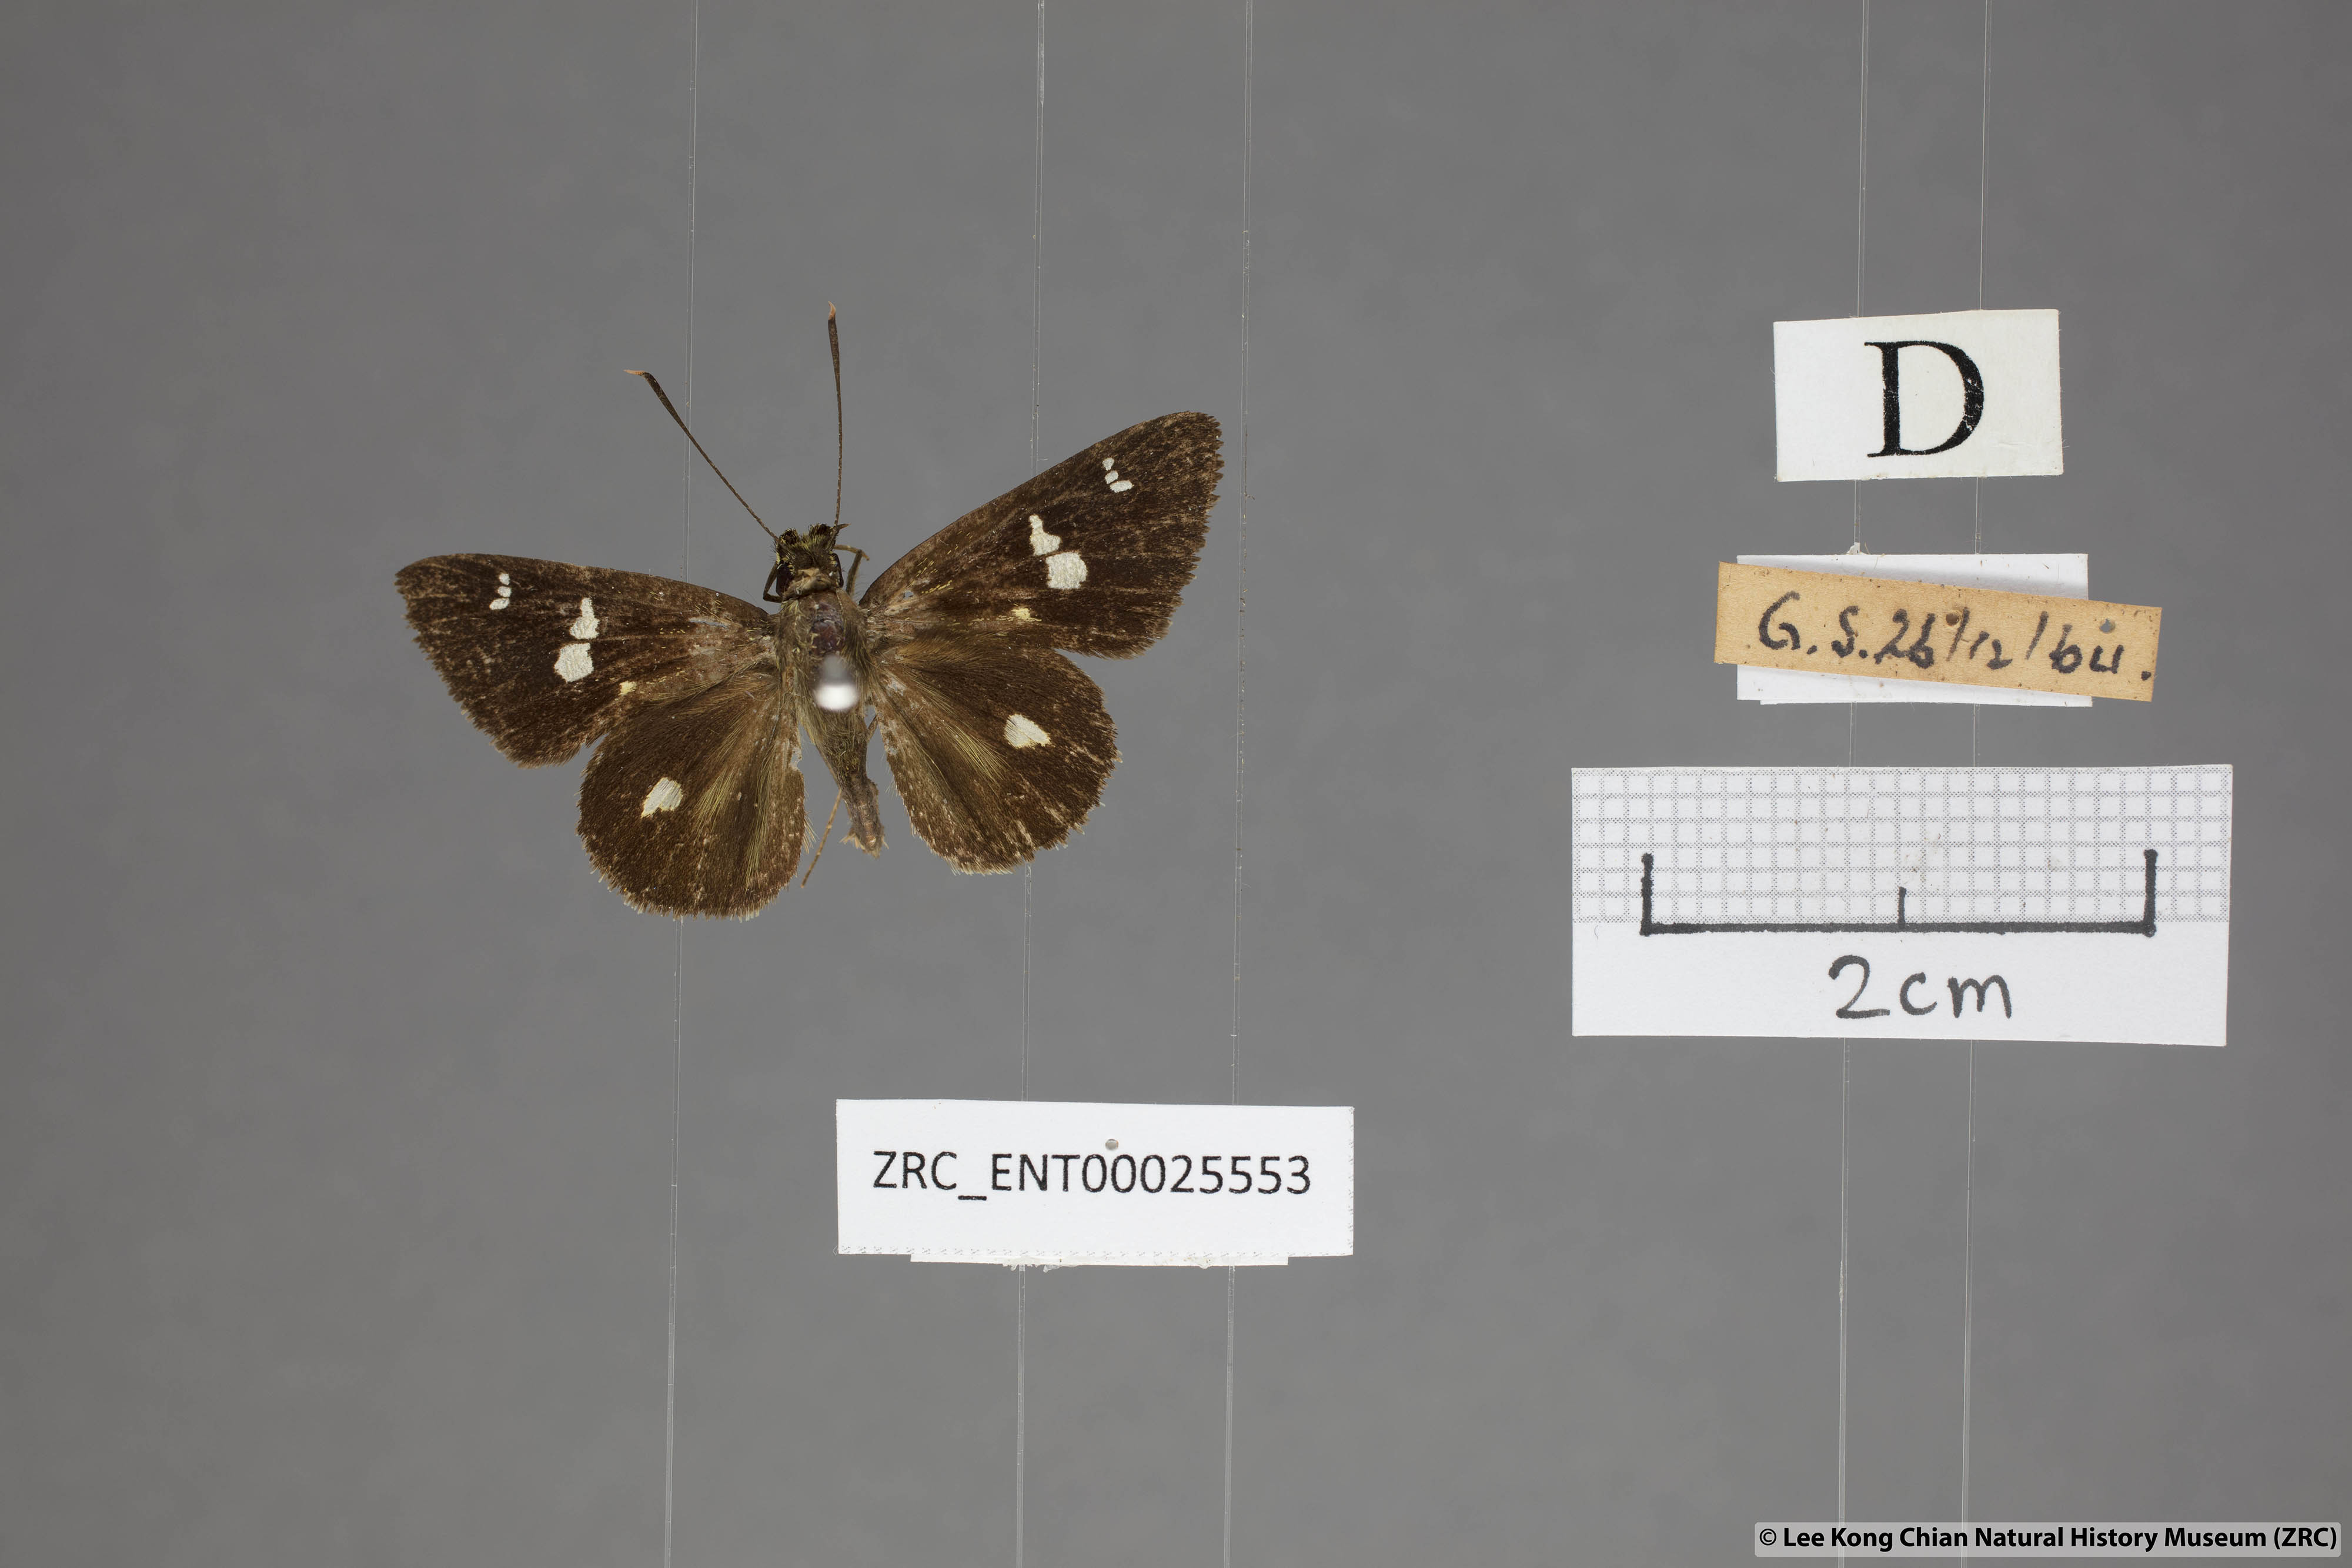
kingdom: Animalia
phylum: Arthropoda
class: Insecta
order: Lepidoptera
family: Hesperiidae
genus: Scobura
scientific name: Scobura phiditia
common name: Malay forest bob
